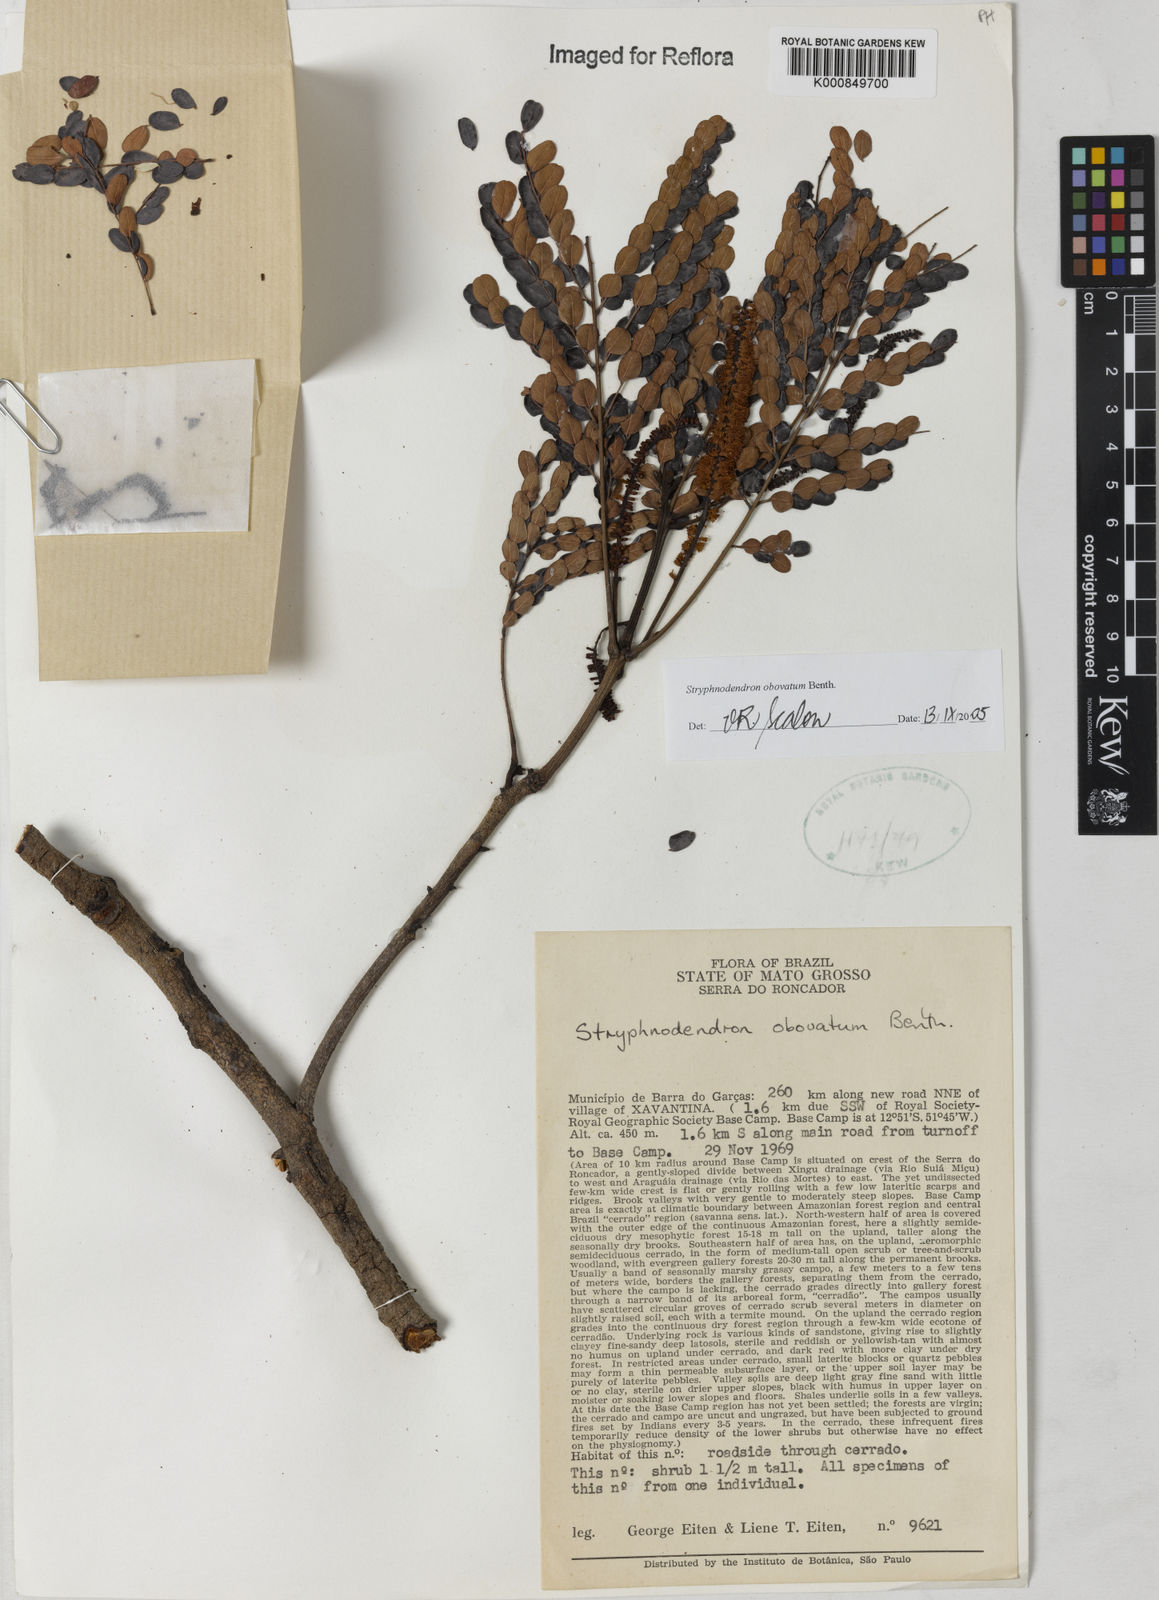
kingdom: Plantae
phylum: Tracheophyta
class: Magnoliopsida
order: Fabales
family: Fabaceae
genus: Stryphnodendron
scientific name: Stryphnodendron rotundifolium
